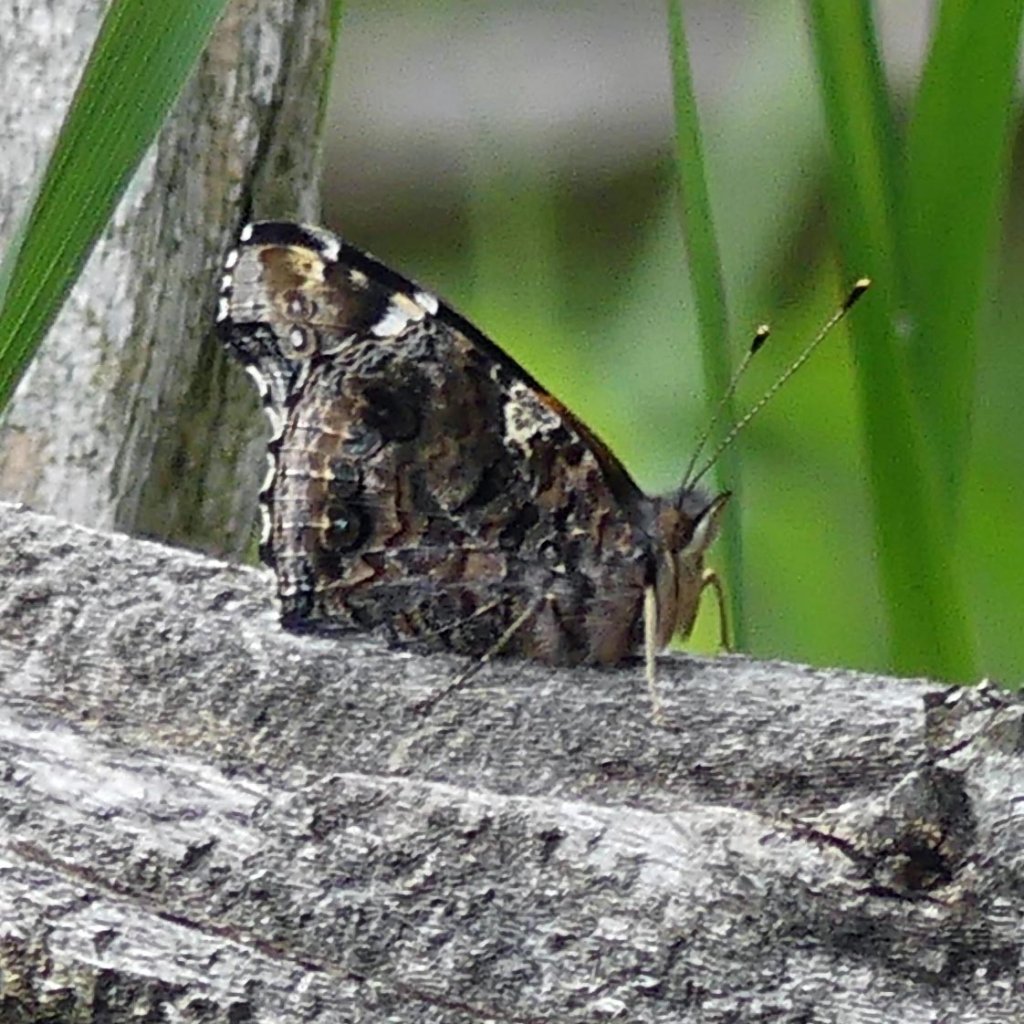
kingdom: Animalia
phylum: Arthropoda
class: Insecta
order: Lepidoptera
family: Nymphalidae
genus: Vanessa
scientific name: Vanessa atalanta
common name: Red Admiral
